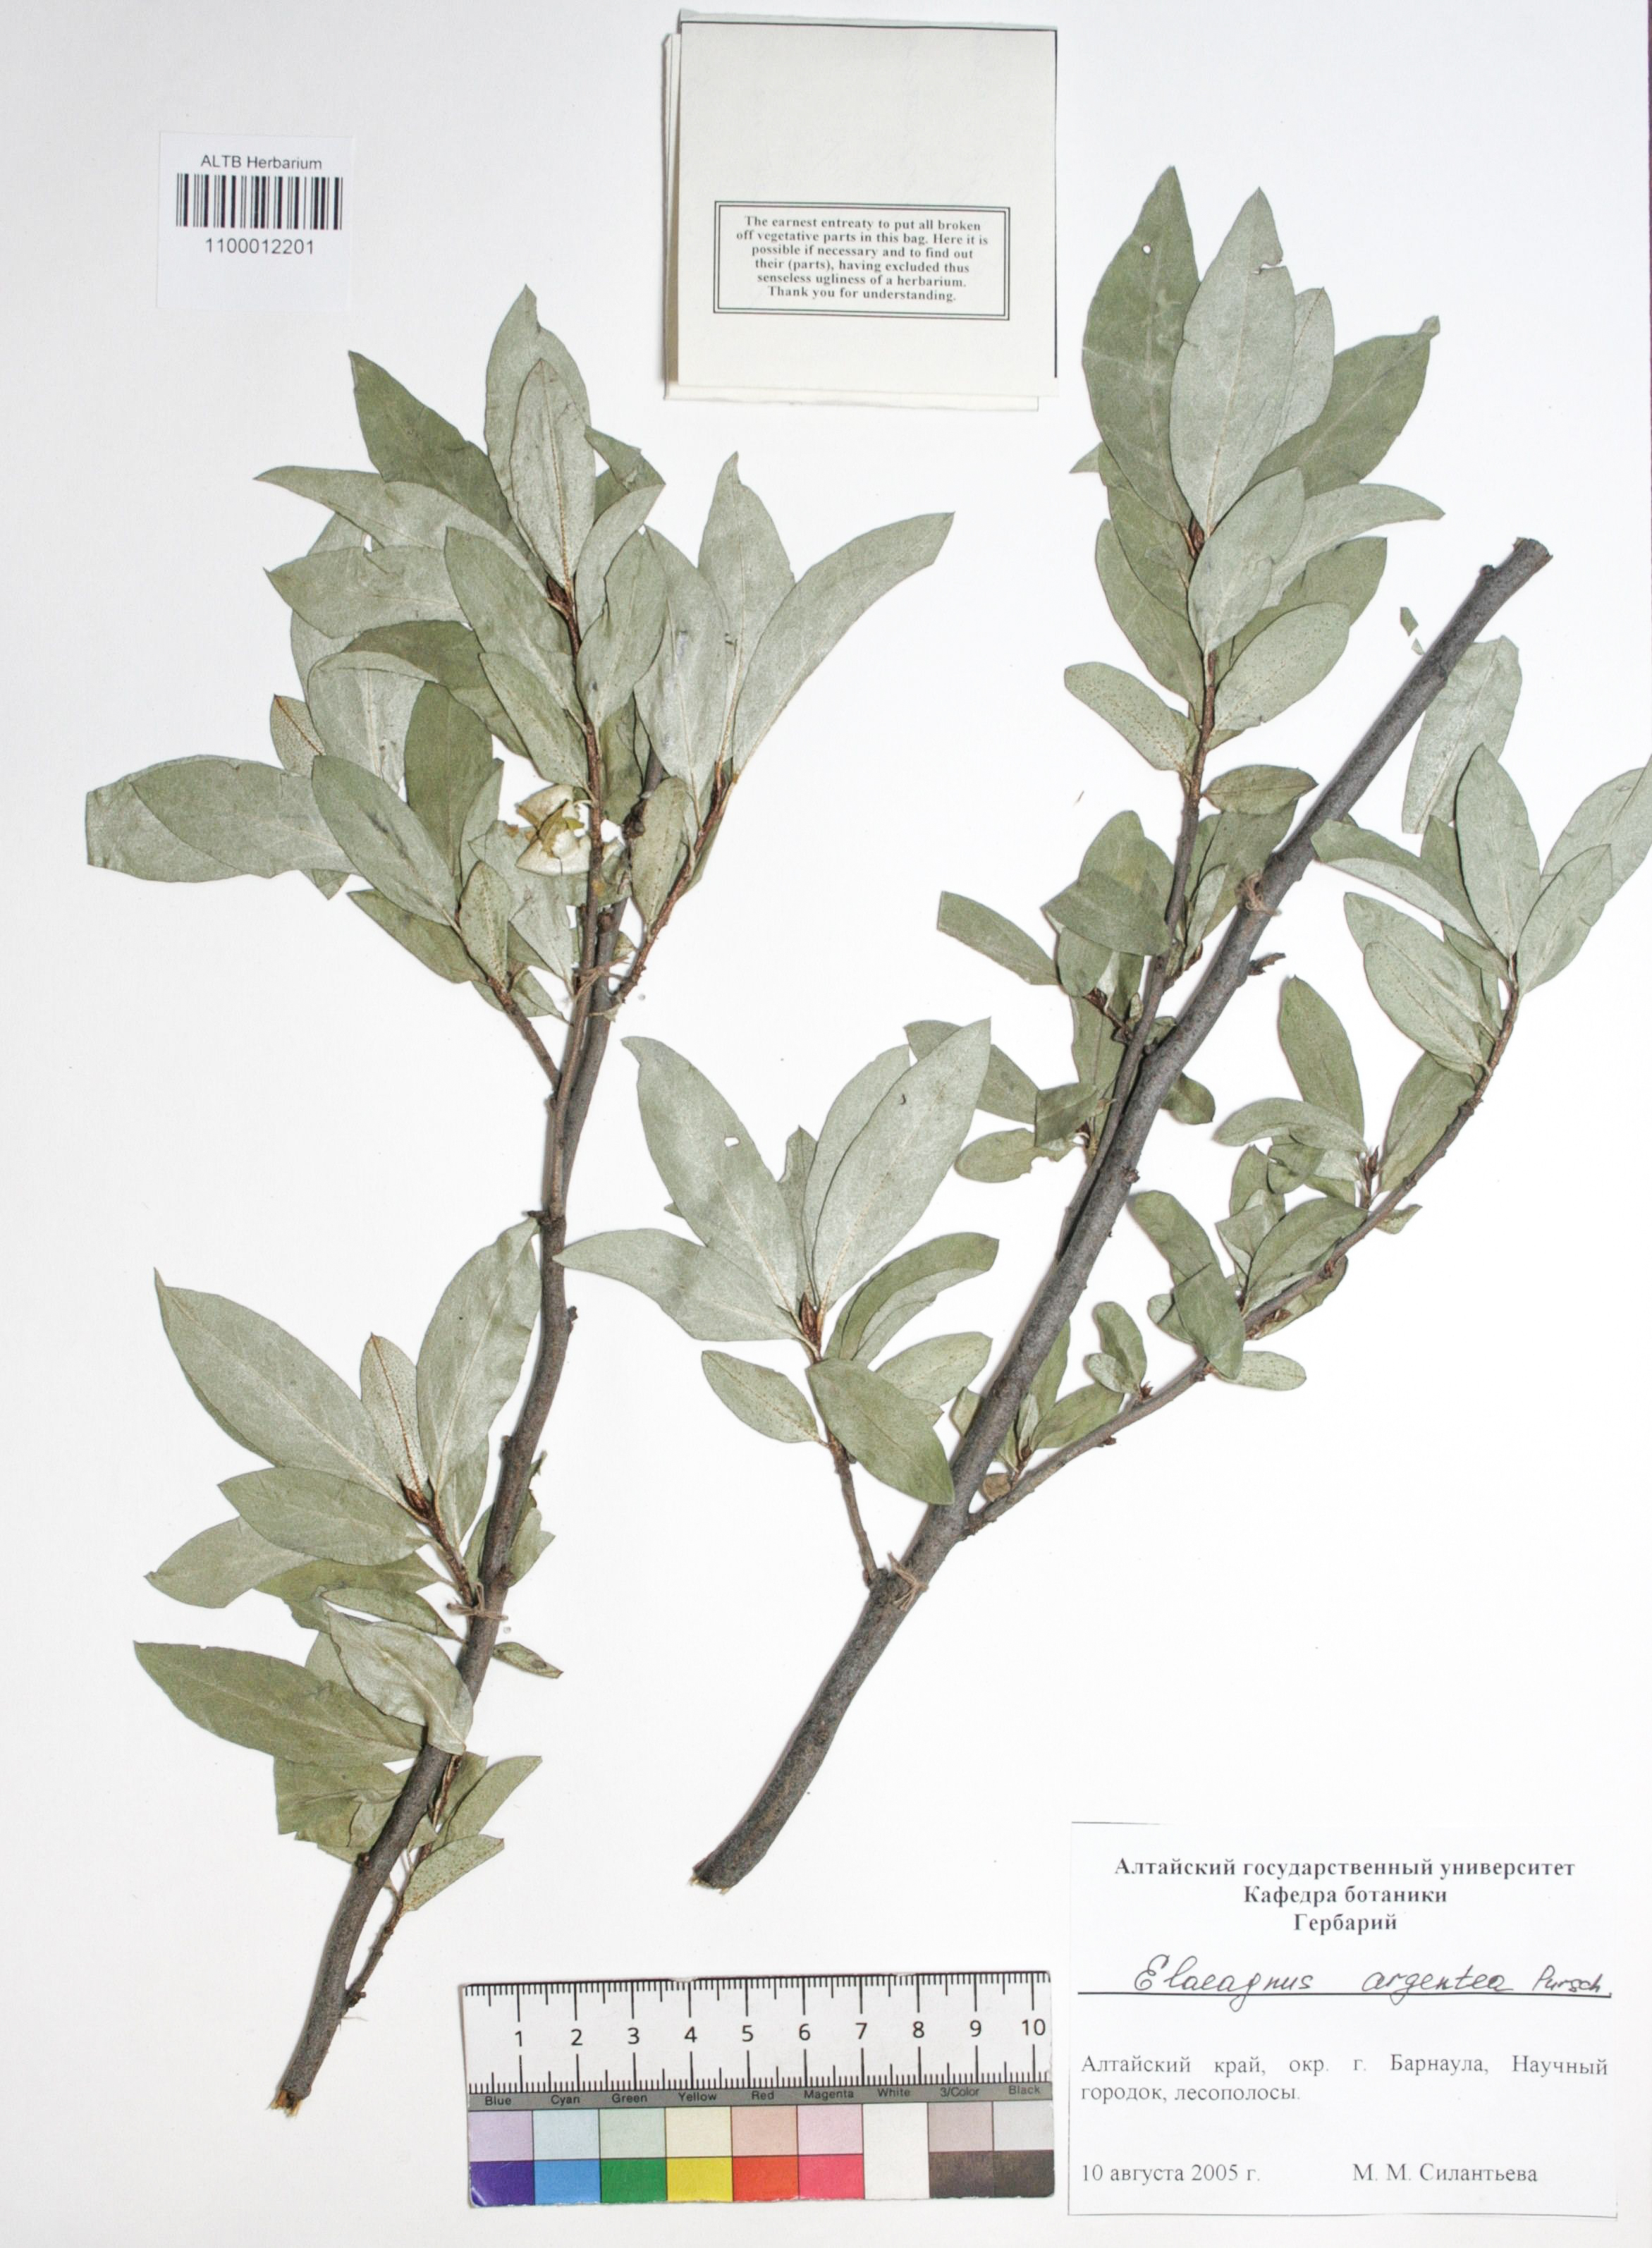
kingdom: Plantae
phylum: Tracheophyta
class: Magnoliopsida
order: Rosales
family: Elaeagnaceae
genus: Elaeagnus
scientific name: Elaeagnus commutata
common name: Silverberry
